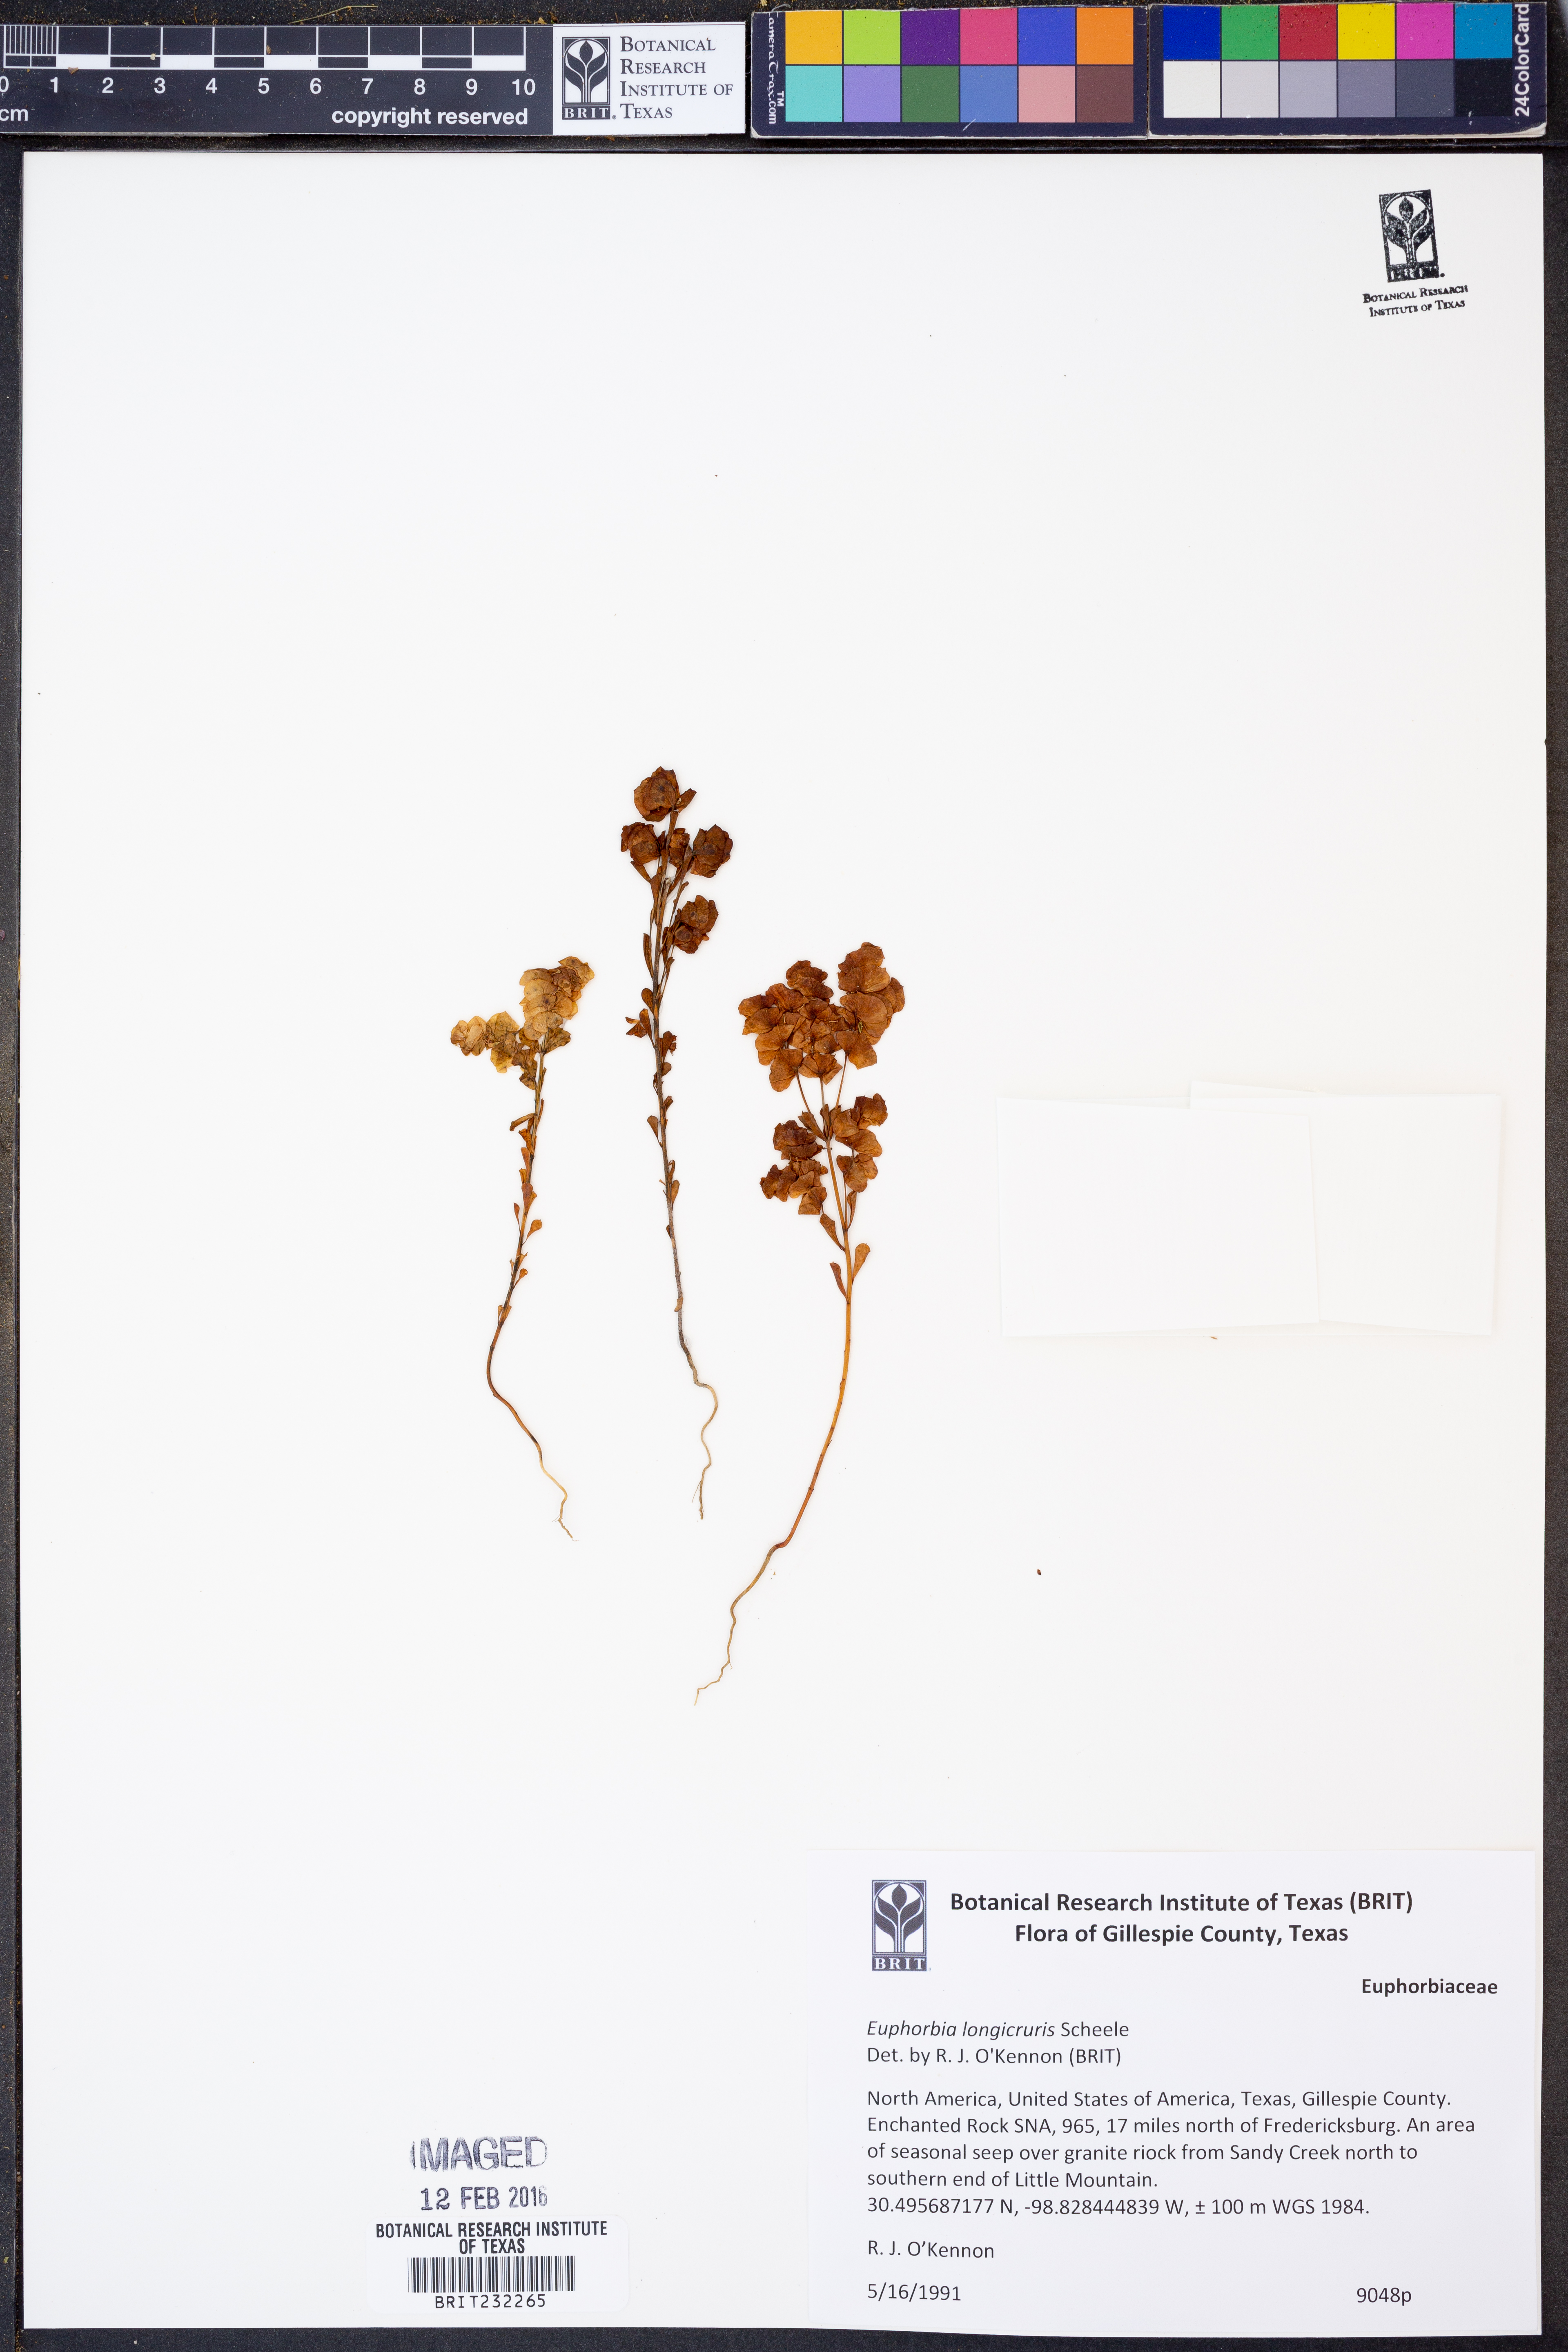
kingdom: Plantae
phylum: Tracheophyta
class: Magnoliopsida
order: Malpighiales
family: Euphorbiaceae
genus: Euphorbia
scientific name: Euphorbia longicruris
